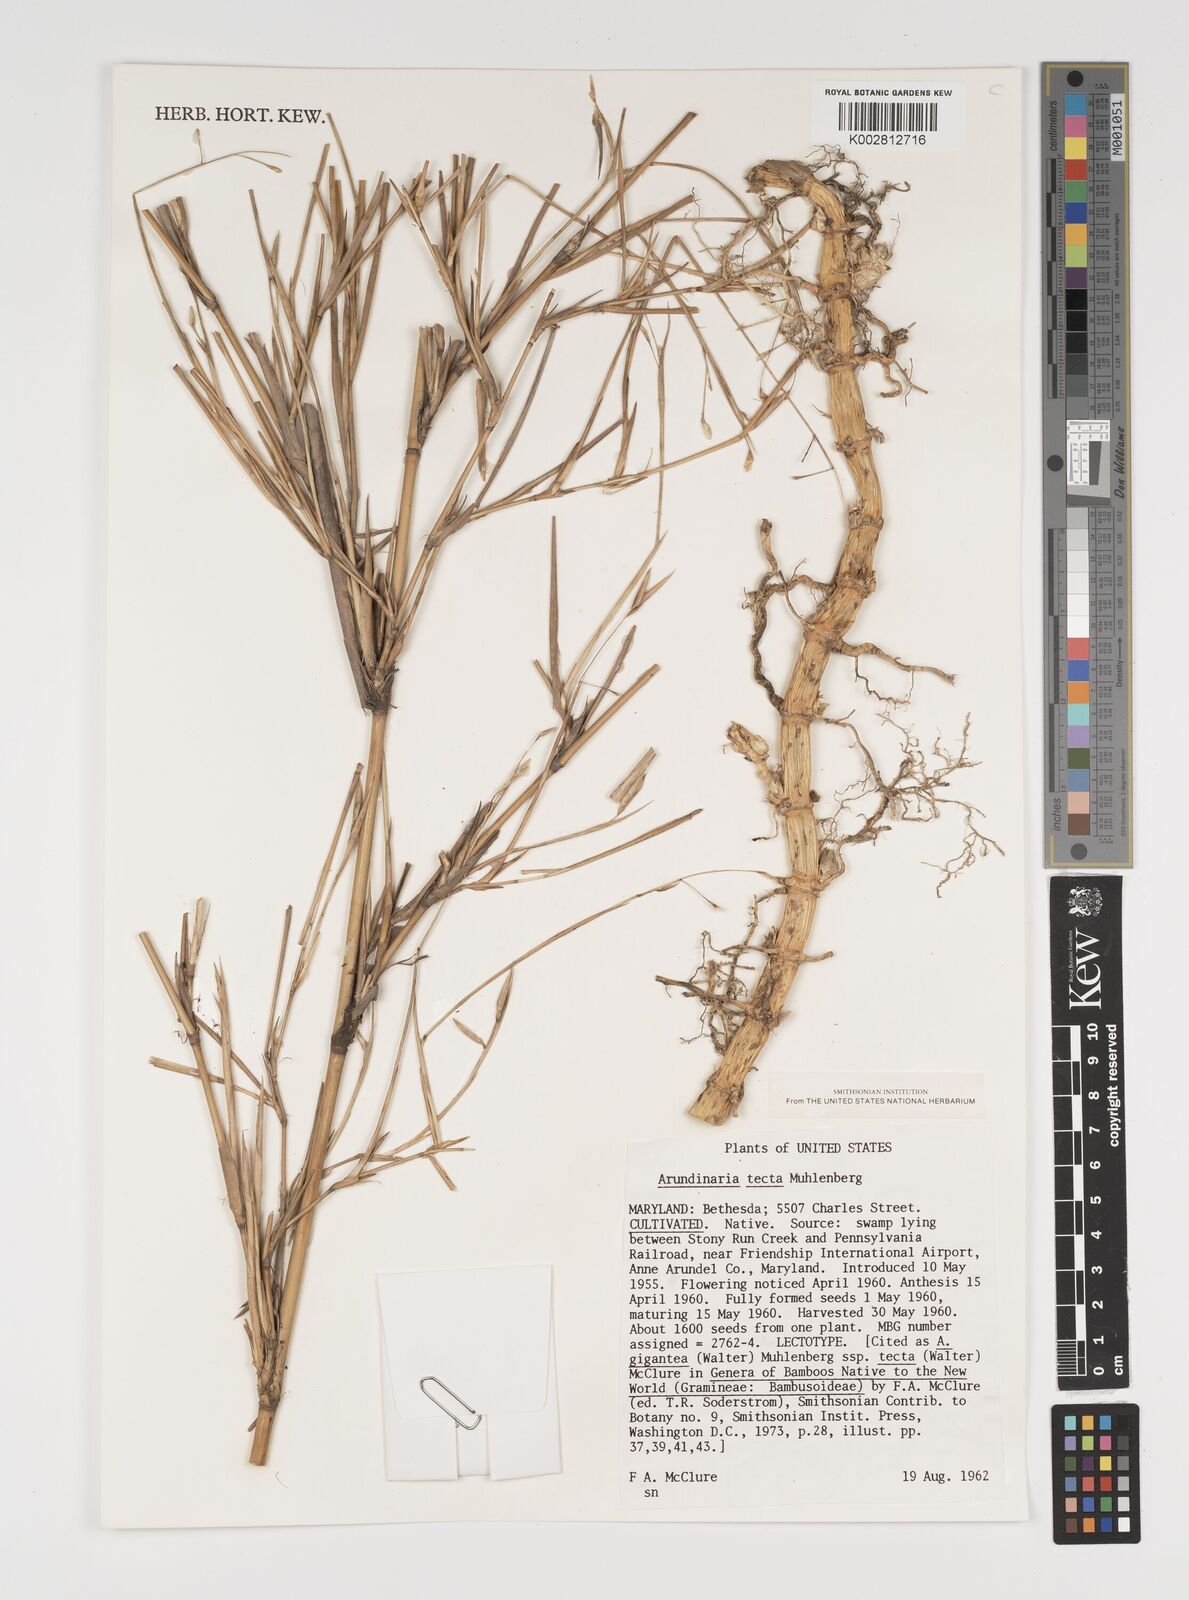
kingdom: Plantae
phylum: Tracheophyta
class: Liliopsida
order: Poales
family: Poaceae
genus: Arundinaria
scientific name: Arundinaria tecta
